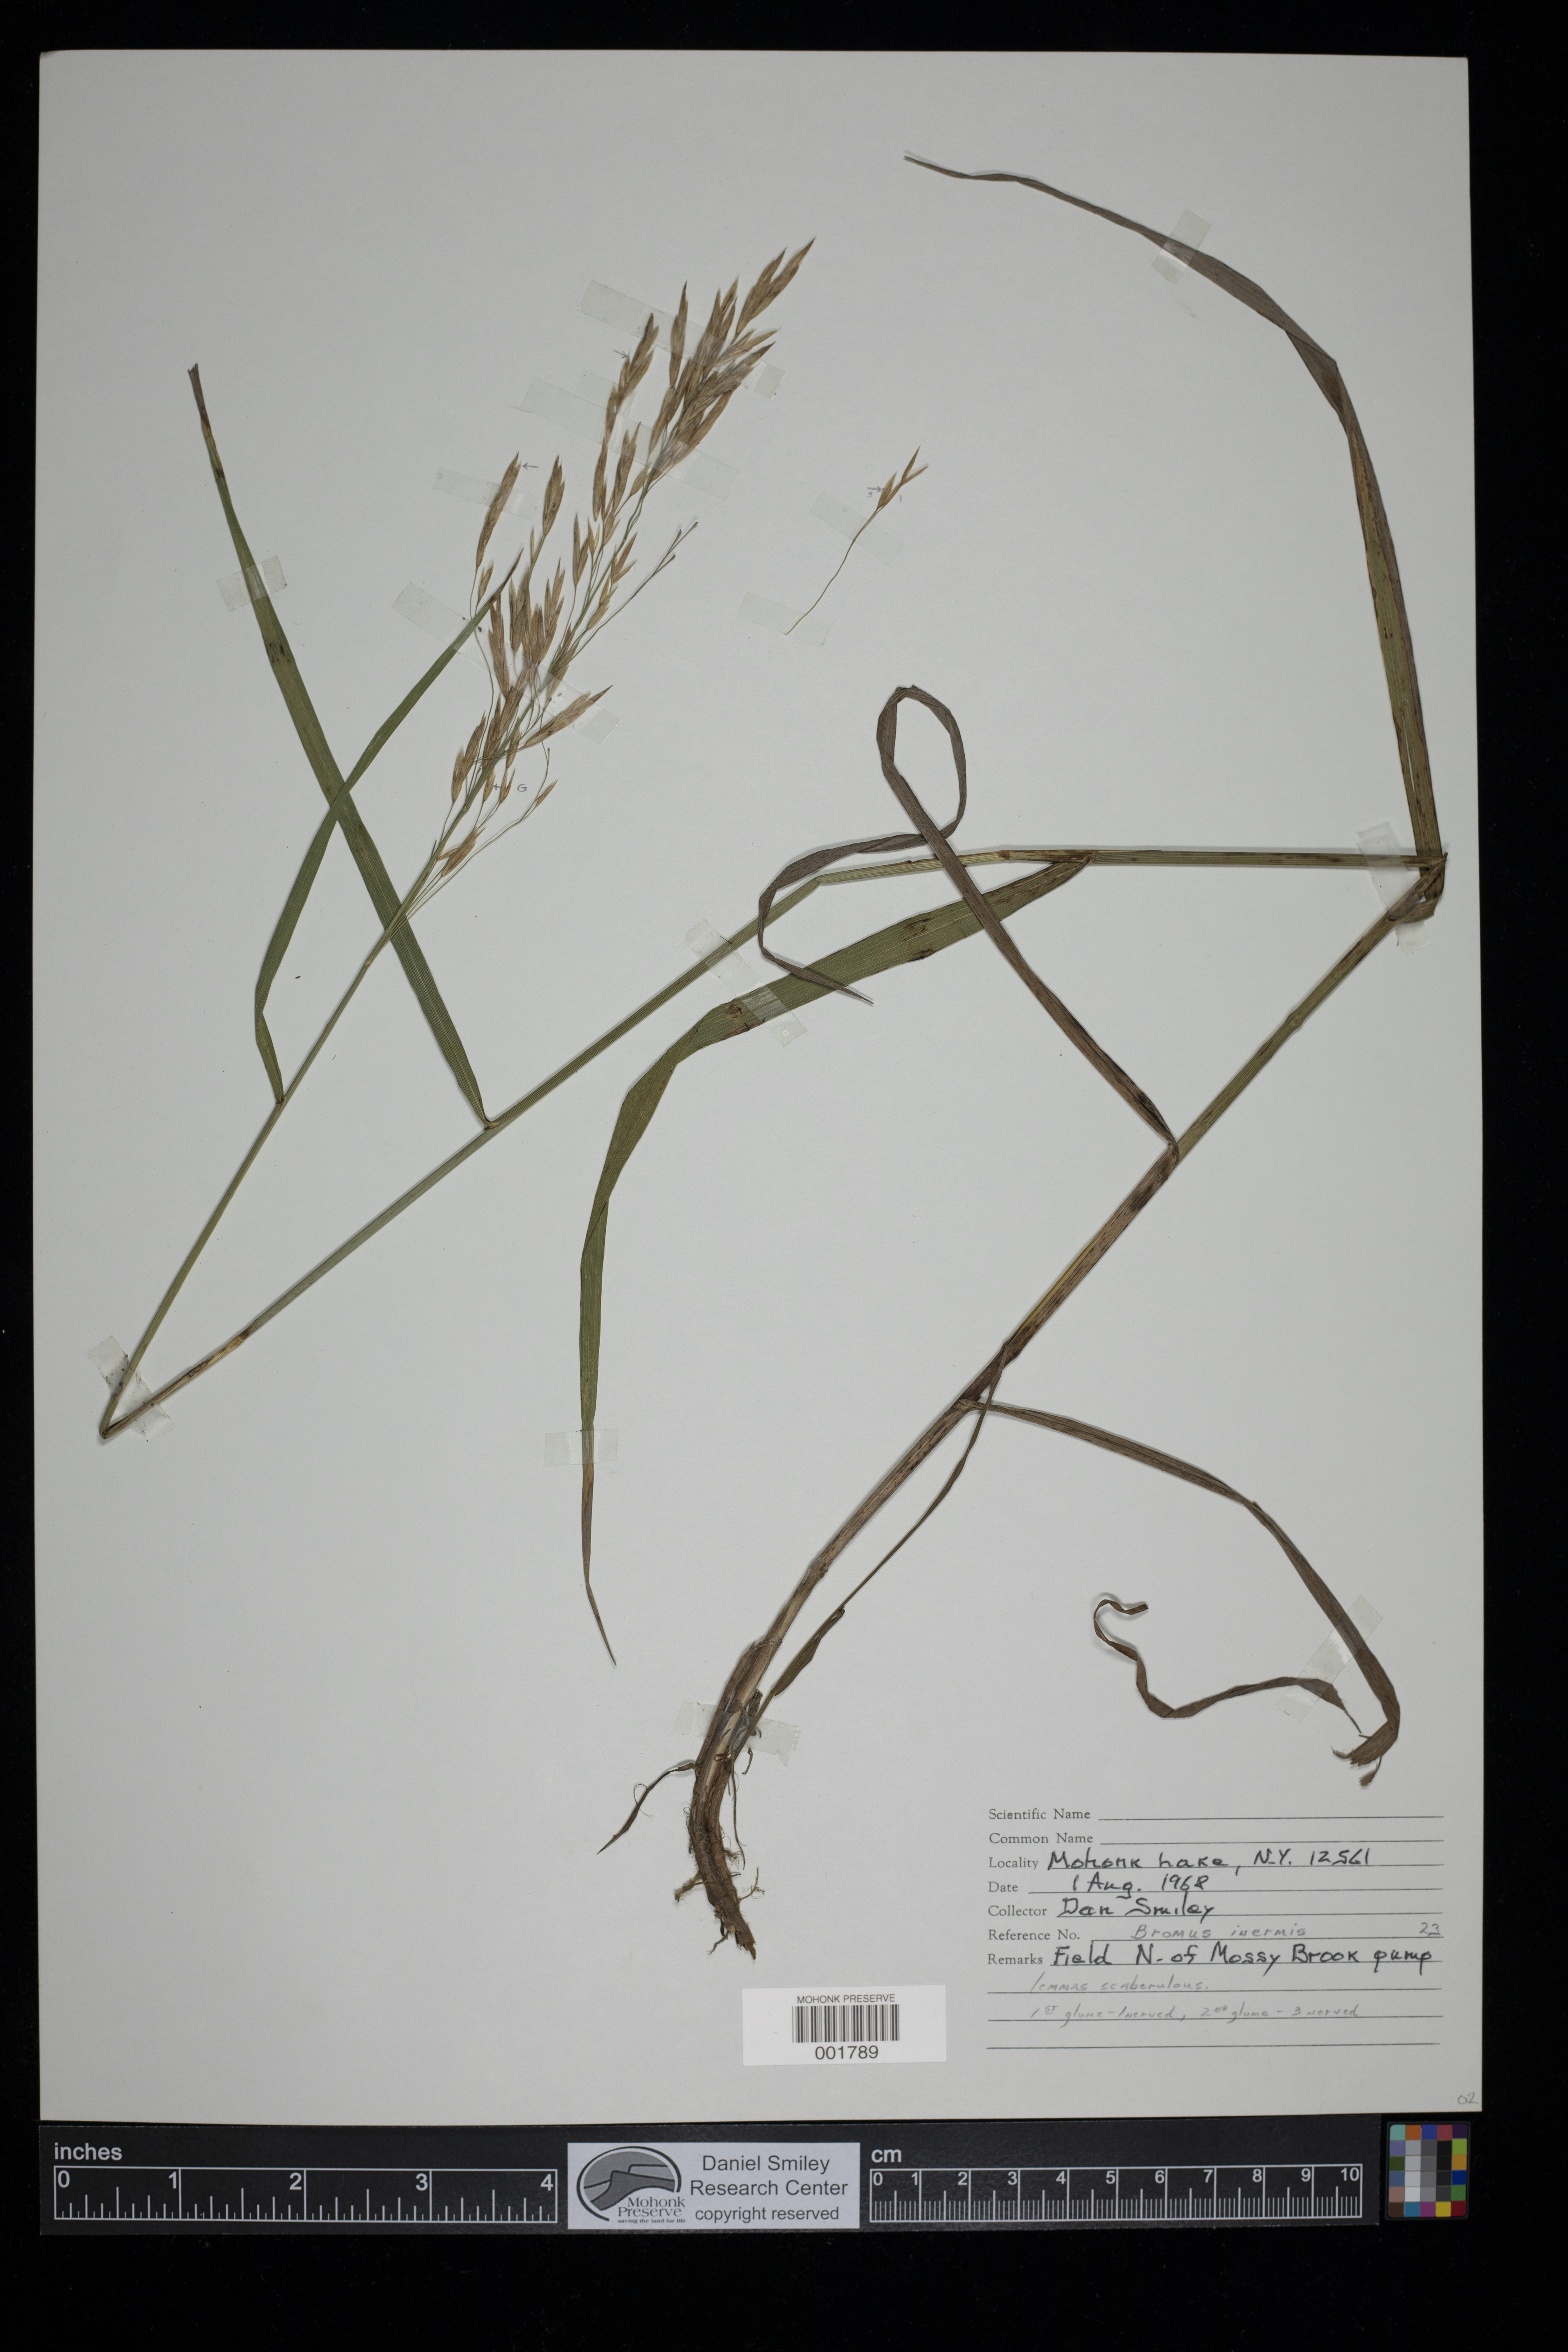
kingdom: Plantae
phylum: Tracheophyta
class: Liliopsida
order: Poales
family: Poaceae
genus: Bromus
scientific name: Bromus inermis
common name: Smooth brome
